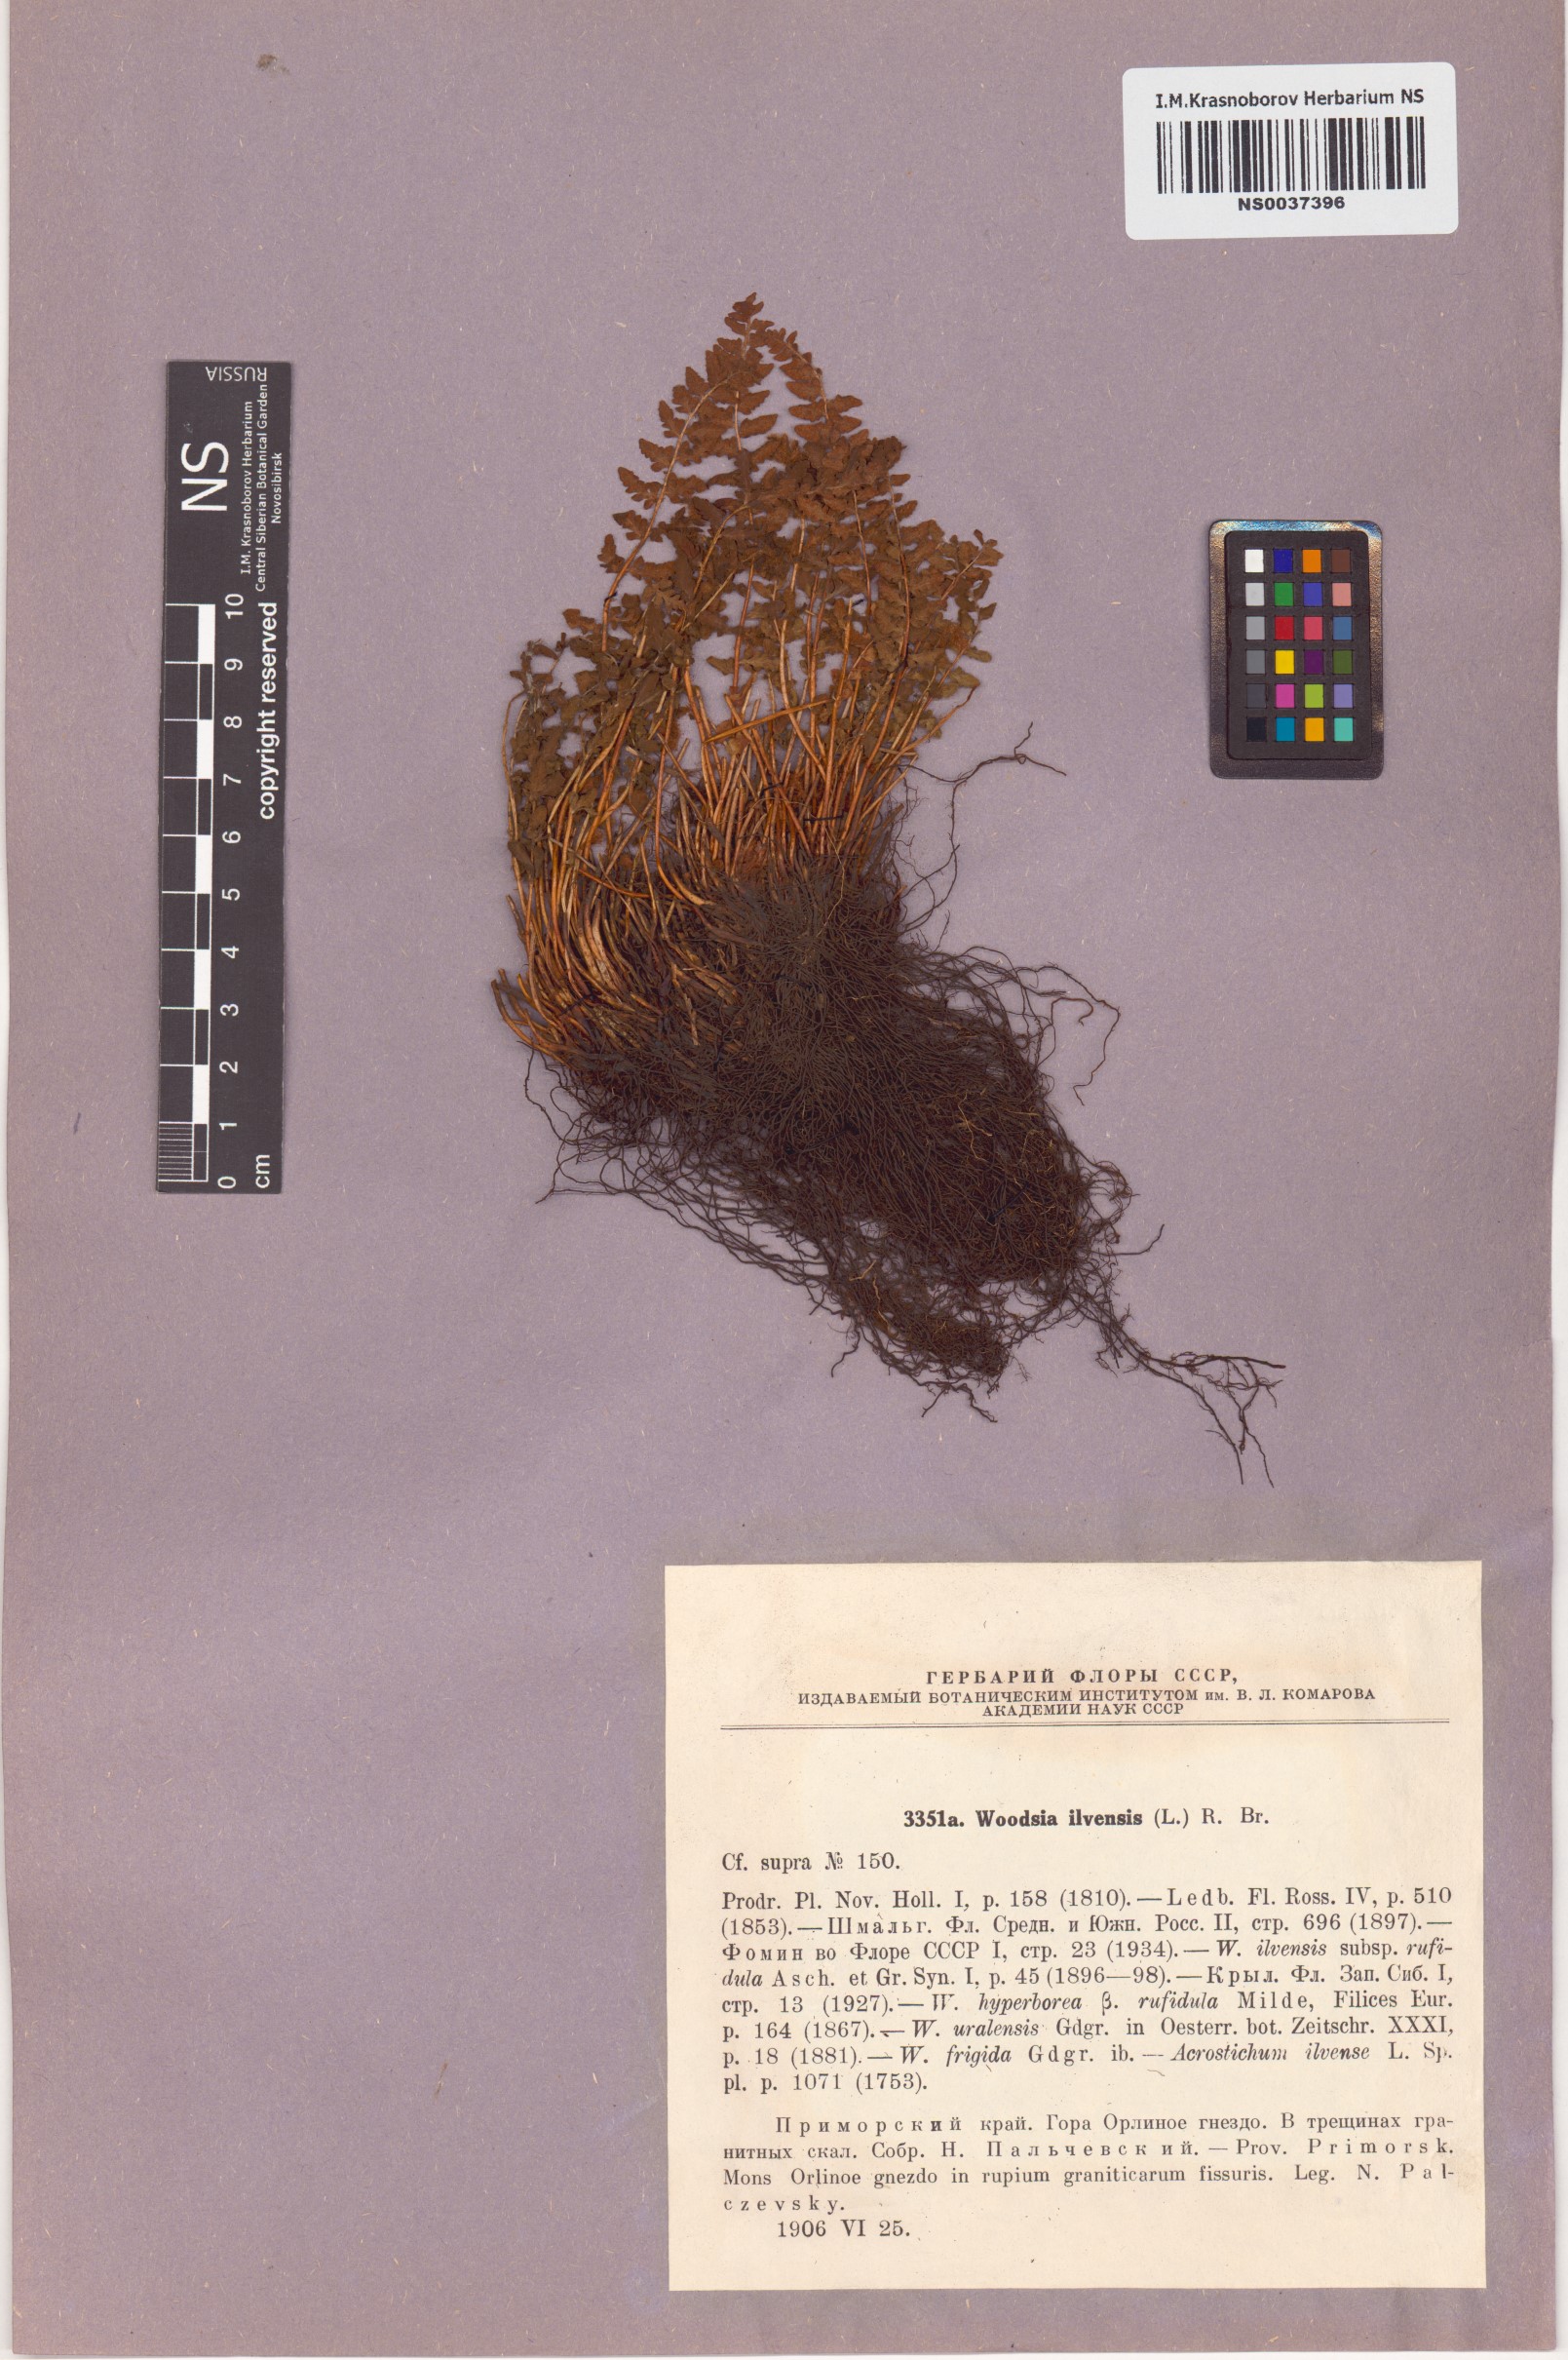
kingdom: Plantae
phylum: Tracheophyta
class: Polypodiopsida
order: Polypodiales
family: Woodsiaceae
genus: Woodsia
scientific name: Woodsia ilvensis
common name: Fragrant woodsia
